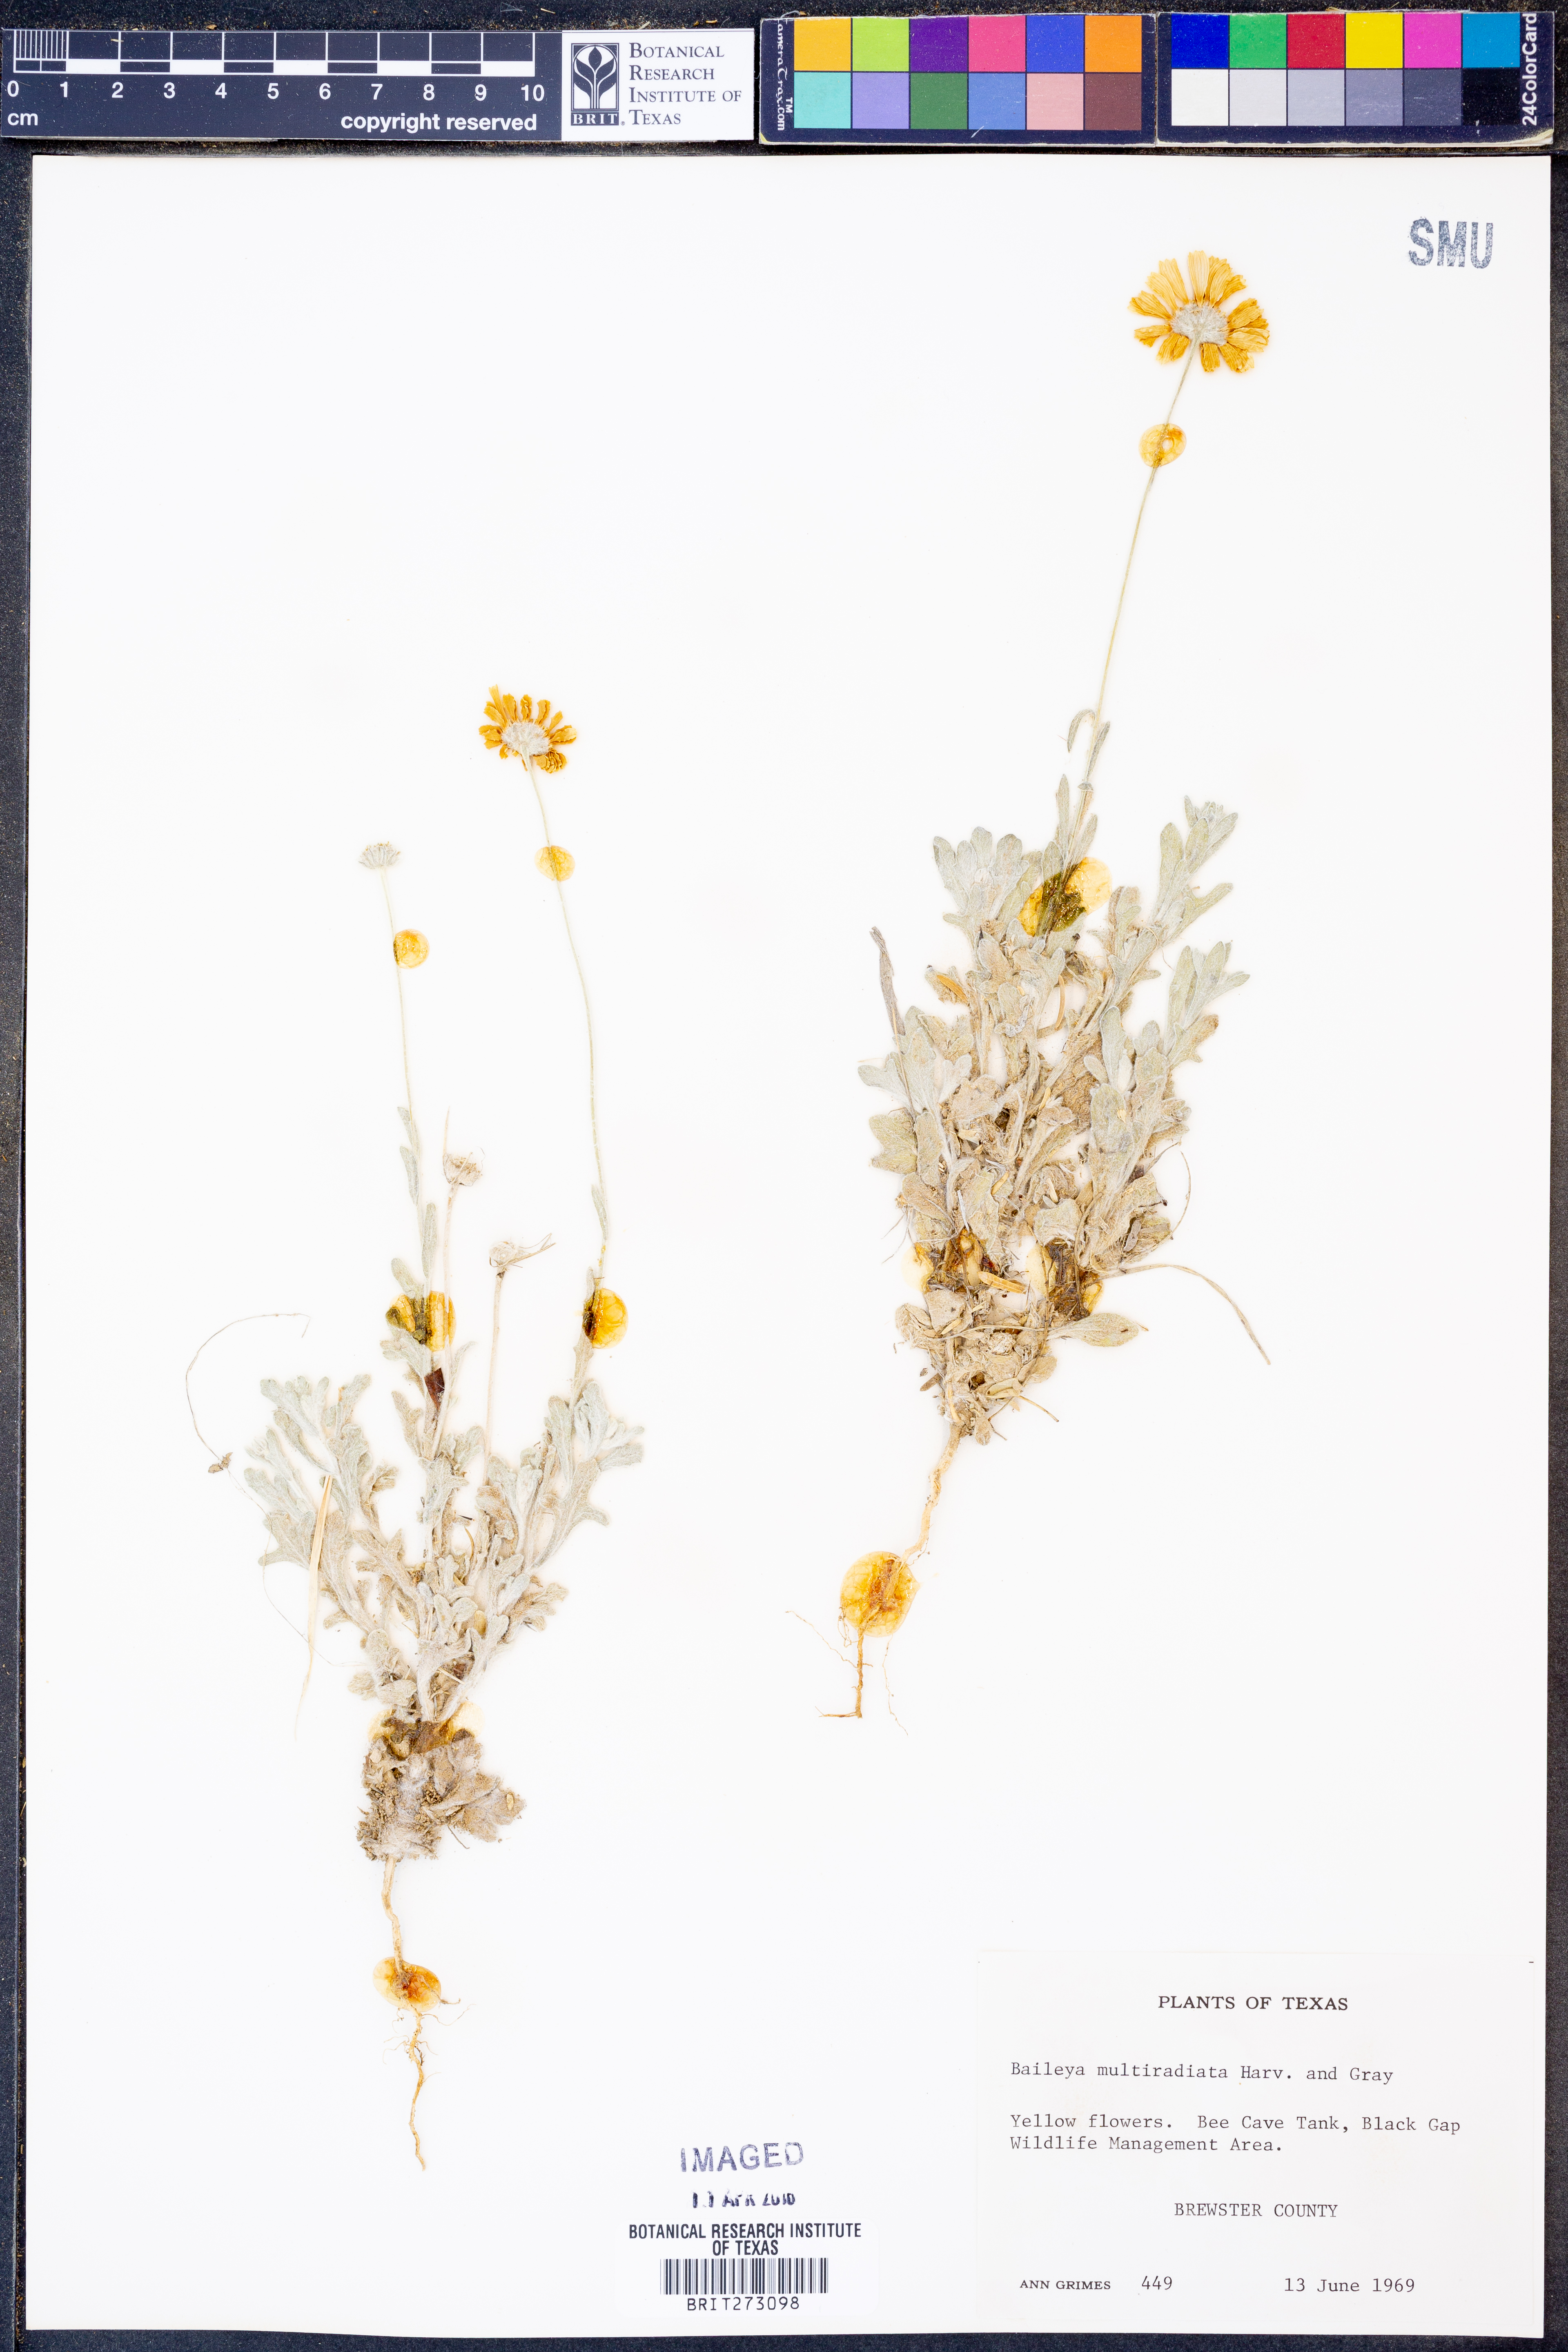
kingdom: Plantae
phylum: Tracheophyta
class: Magnoliopsida
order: Asterales
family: Asteraceae
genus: Baileya
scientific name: Baileya multiradiata
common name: Desert-marigold
